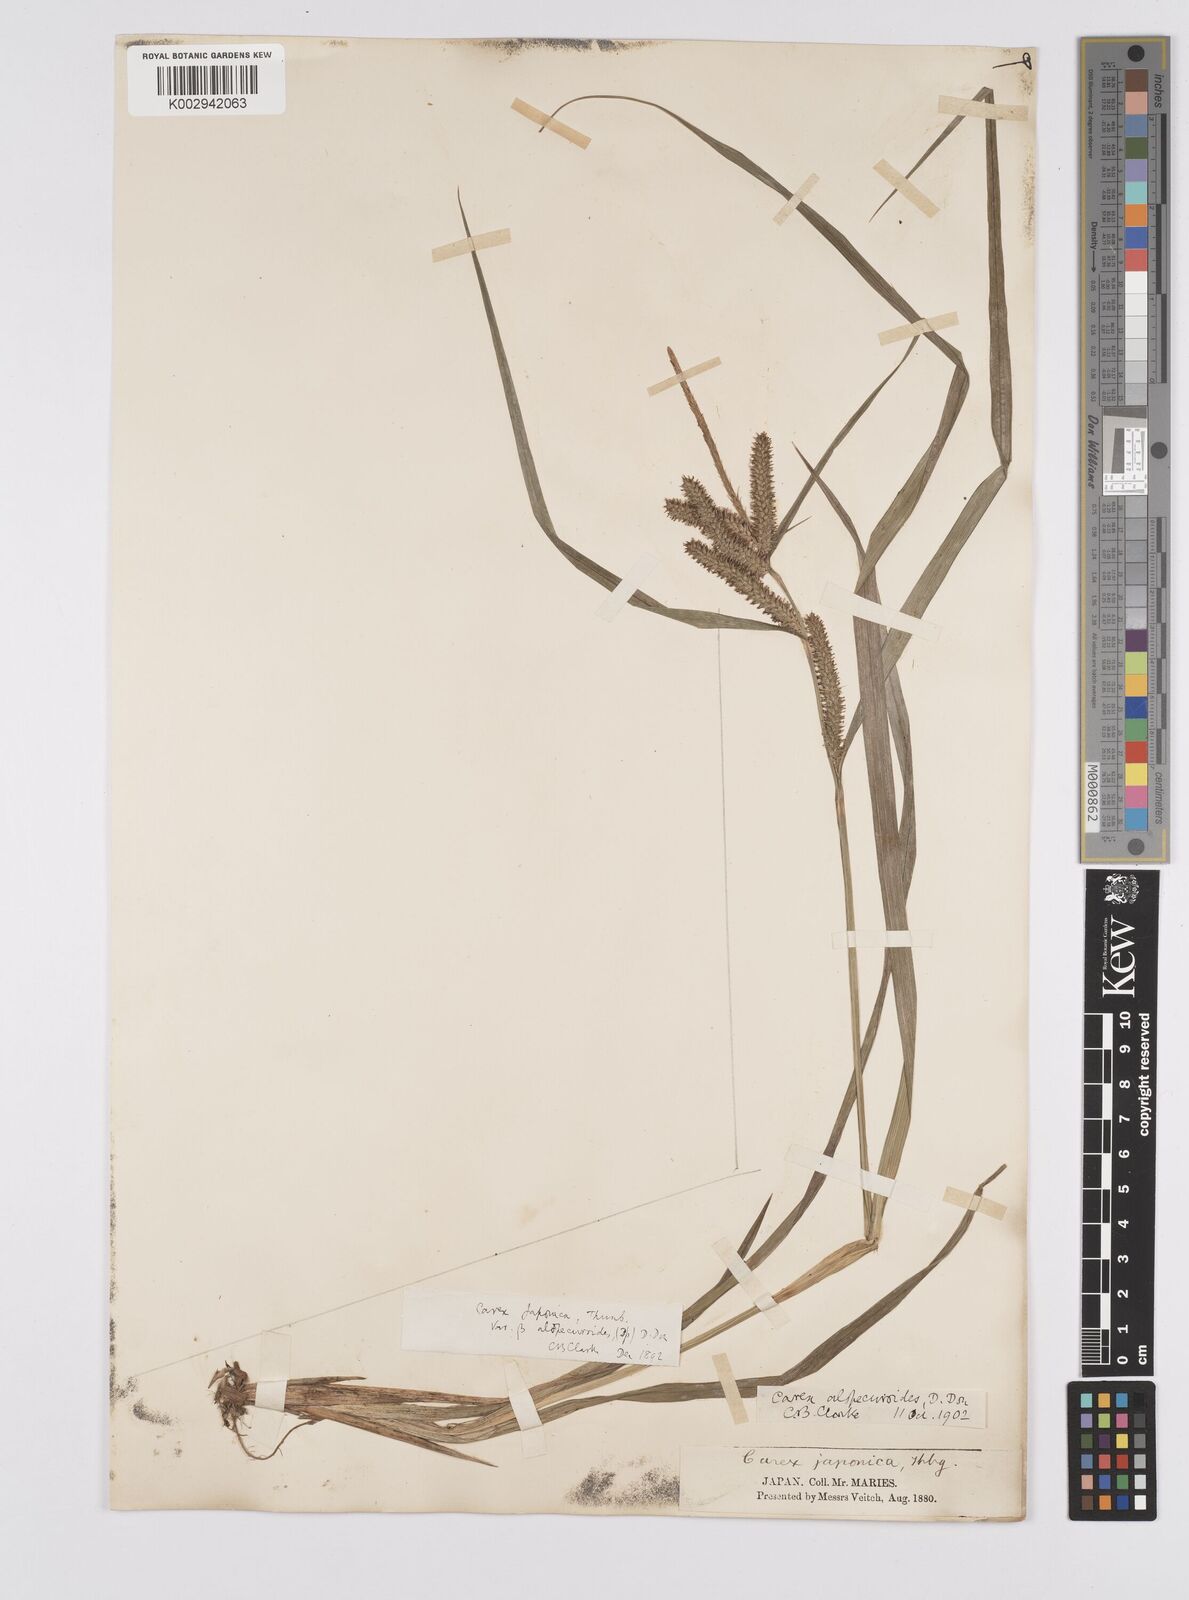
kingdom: Plantae
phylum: Tracheophyta
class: Liliopsida
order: Poales
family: Cyperaceae
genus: Carex
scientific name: Carex japonica
